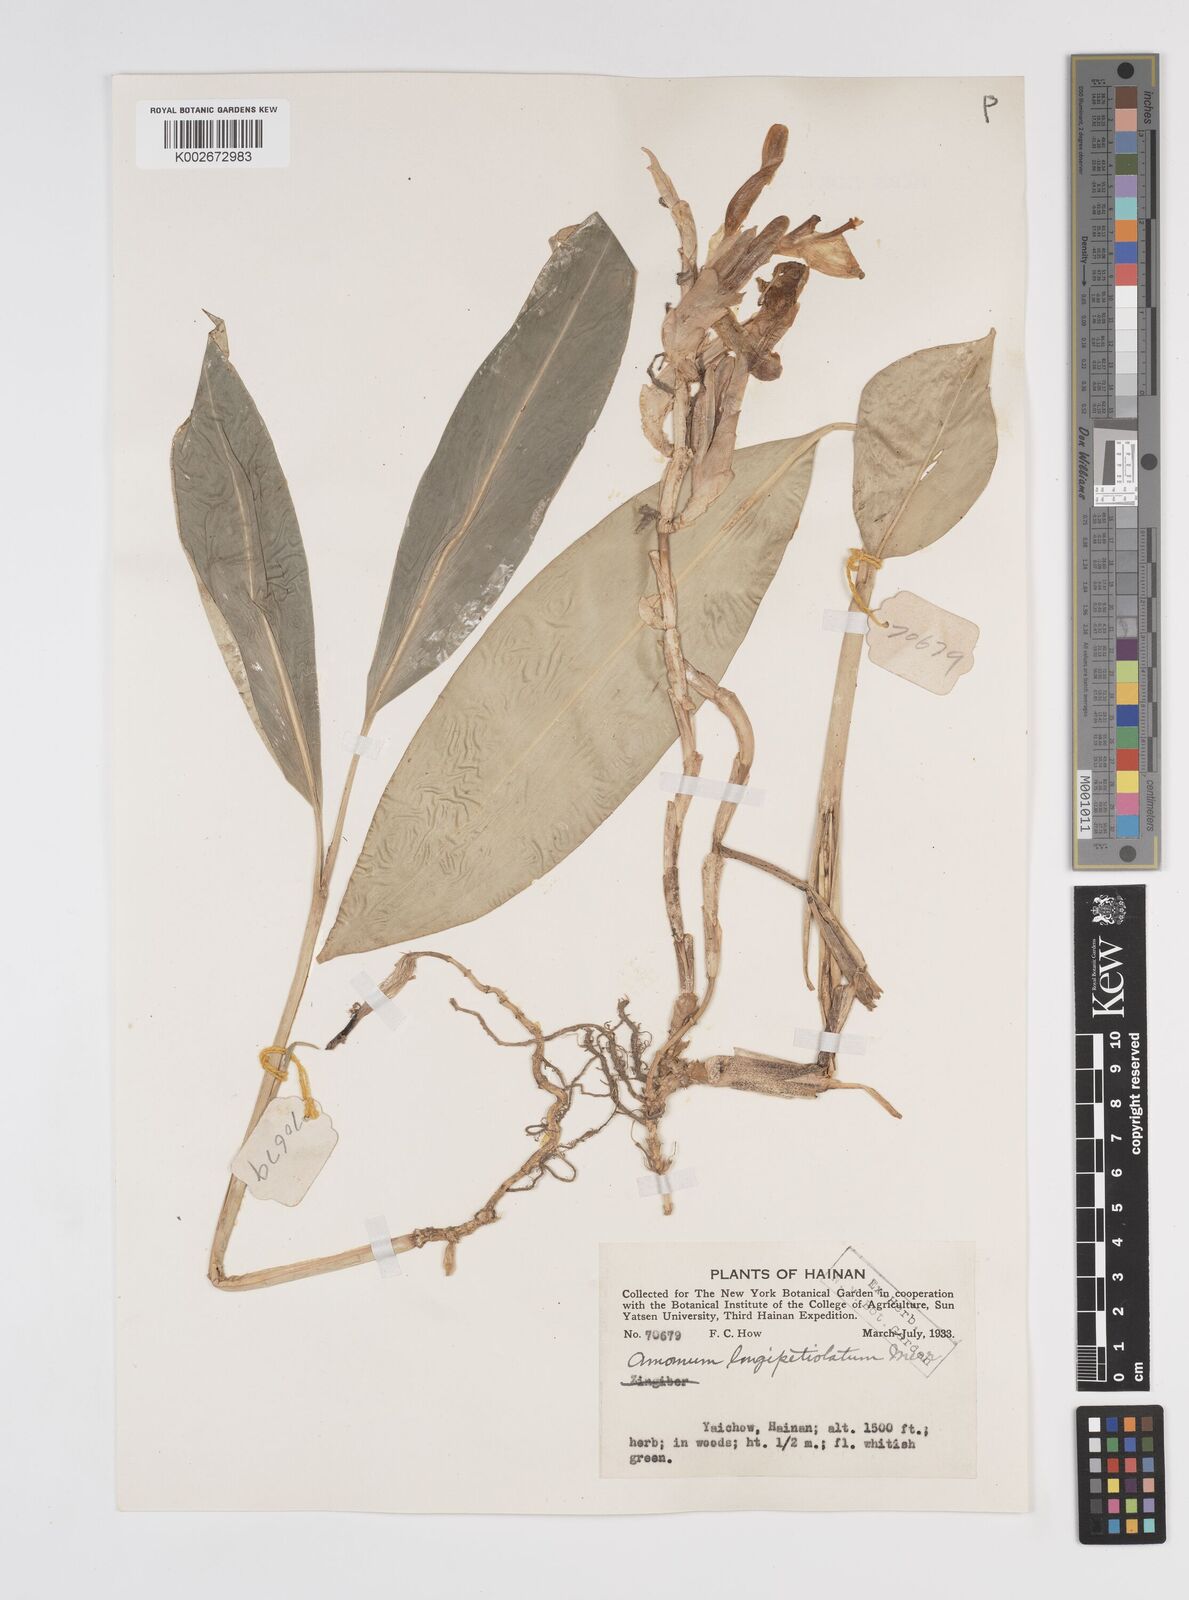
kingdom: Plantae
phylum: Tracheophyta
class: Liliopsida
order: Zingiberales
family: Zingiberaceae
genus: Amomum
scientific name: Amomum longipetiolatum
